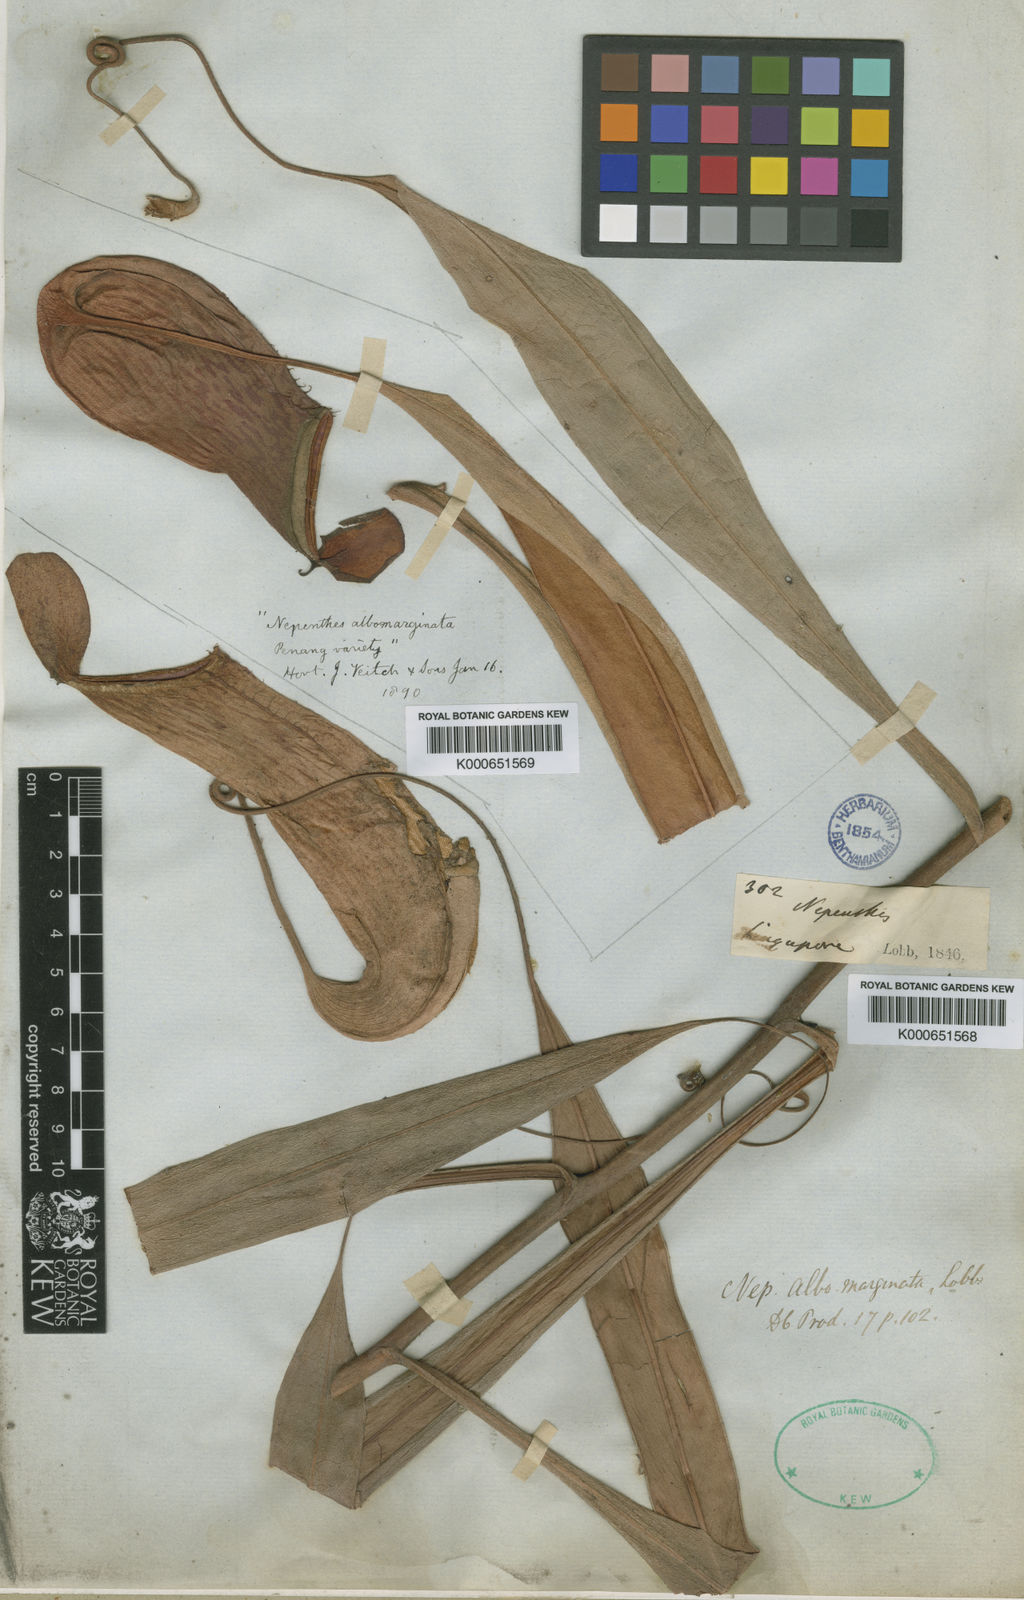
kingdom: Plantae
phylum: Tracheophyta
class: Magnoliopsida
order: Caryophyllales
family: Nepenthaceae
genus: Nepenthes
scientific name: Nepenthes albomarginata
